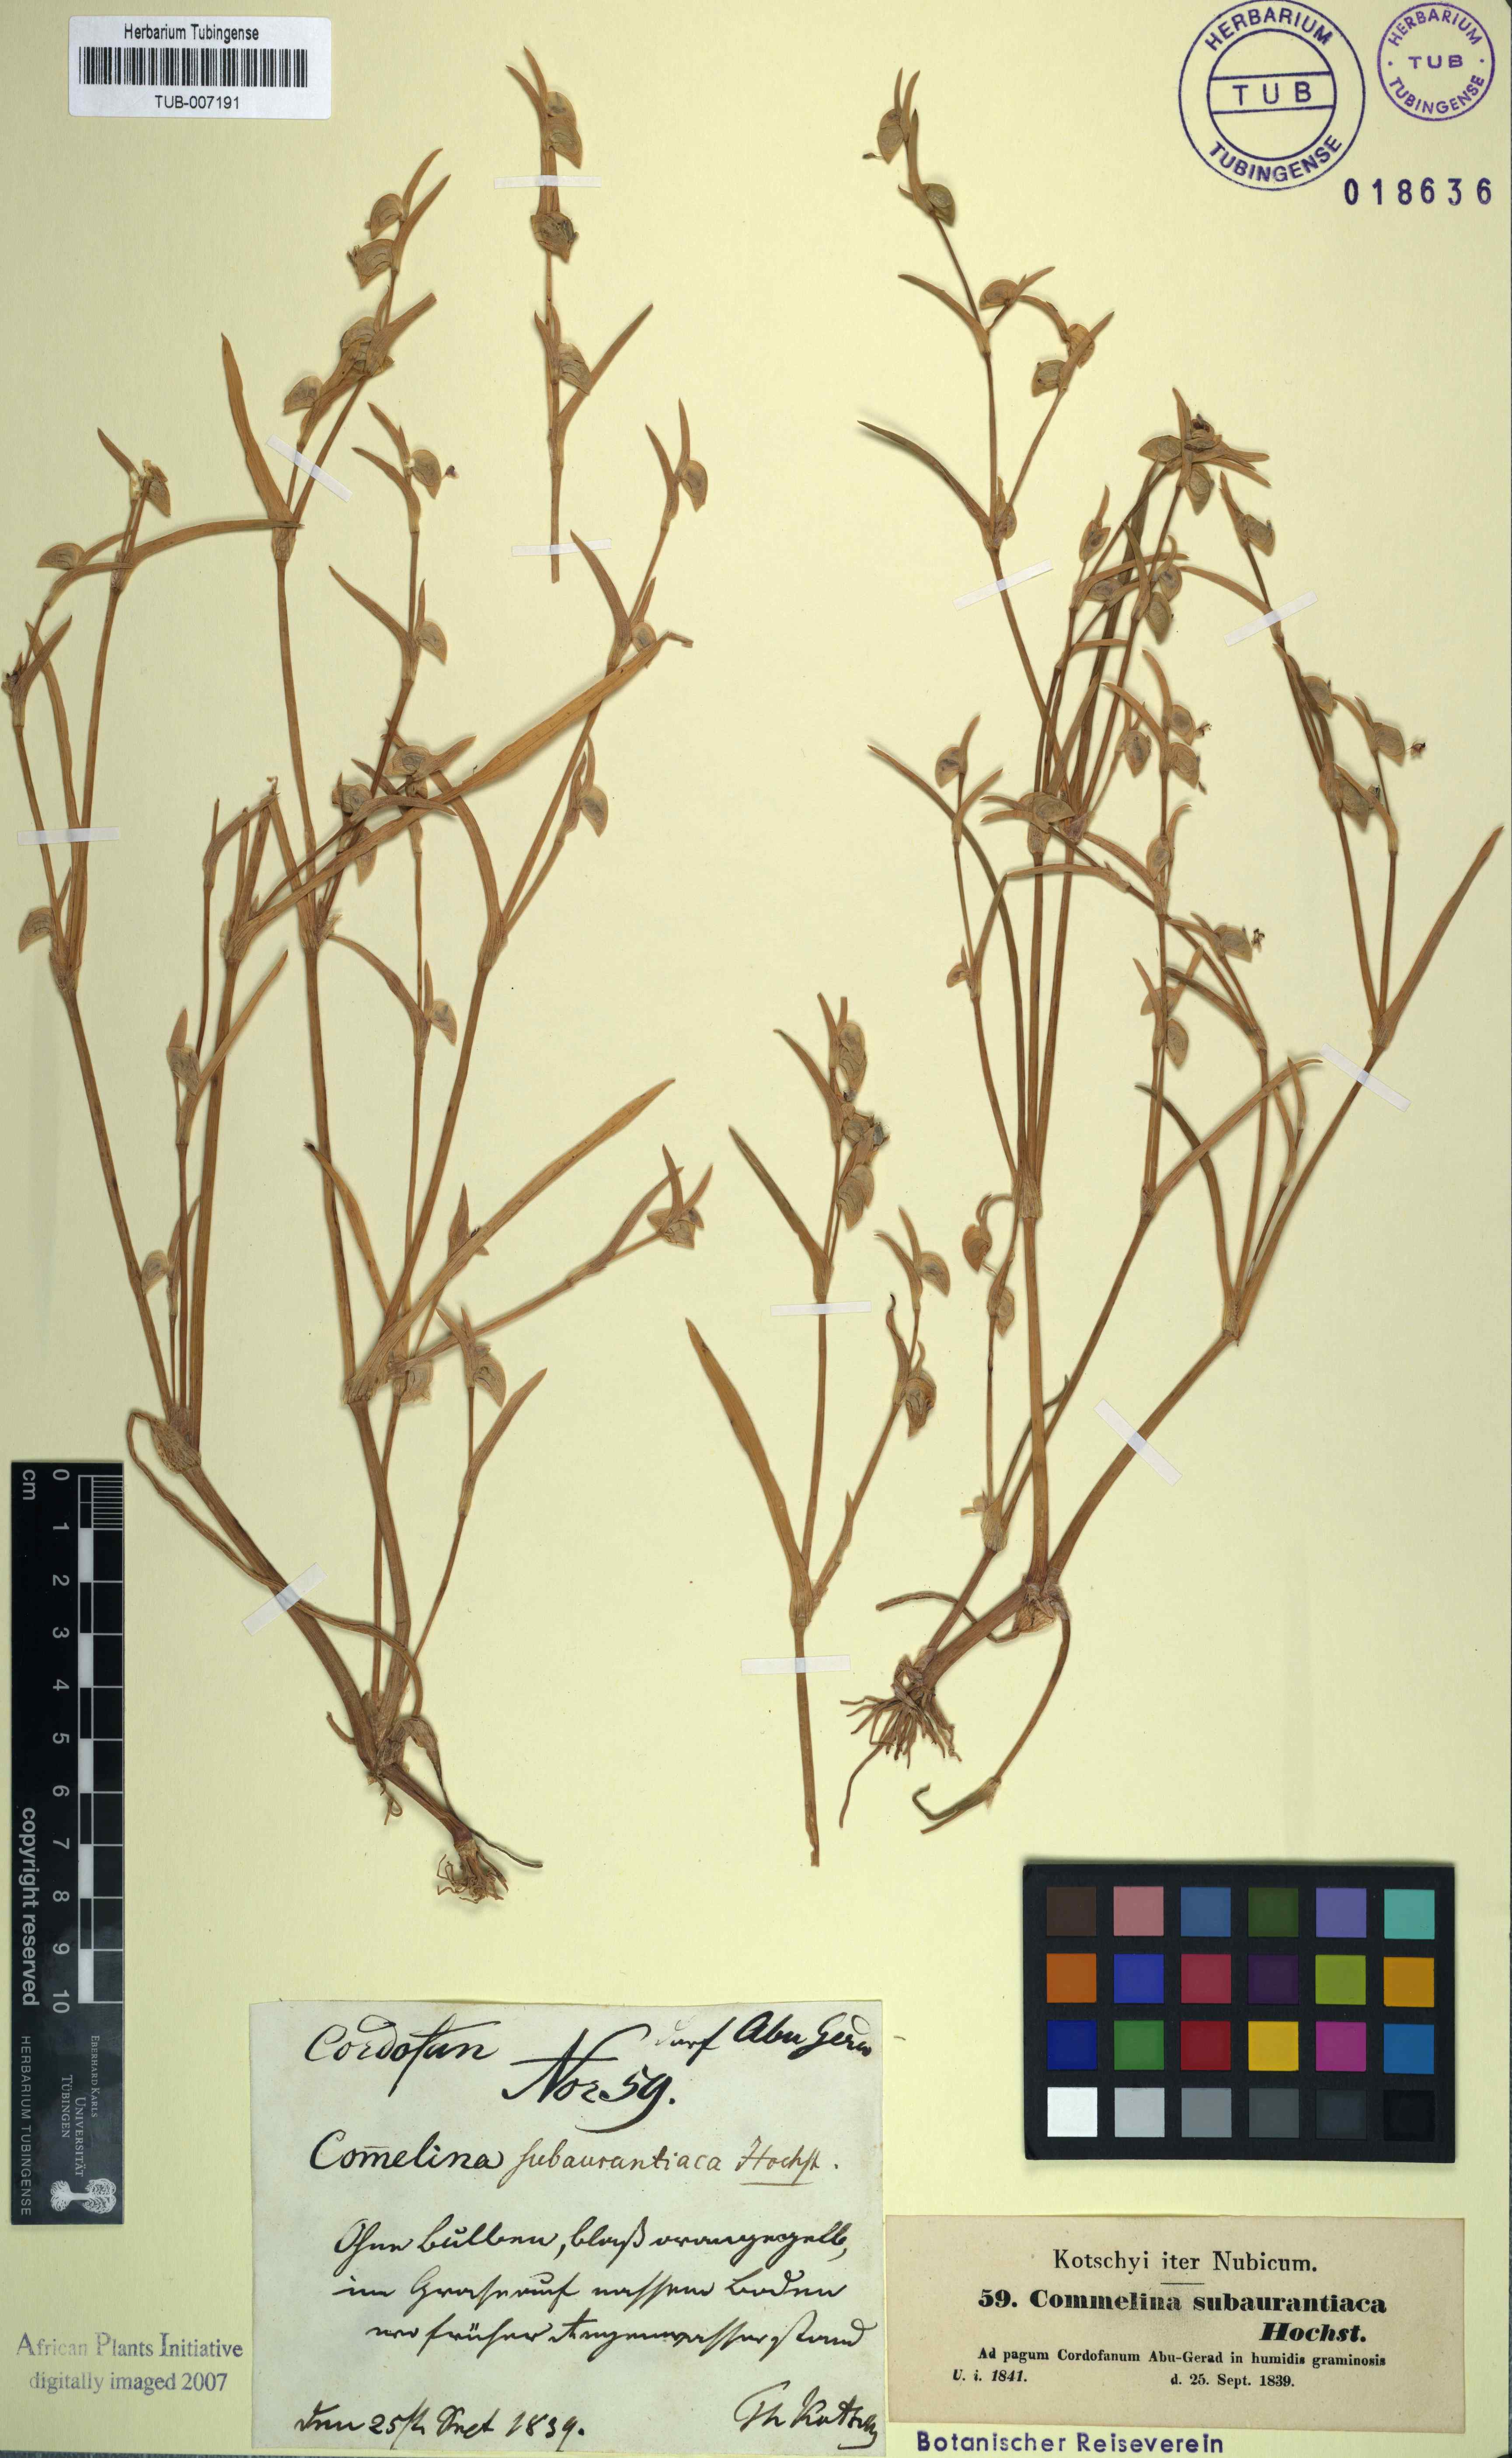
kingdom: Plantae
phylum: Tracheophyta
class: Liliopsida
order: Commelinales
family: Commelinaceae
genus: Commelina
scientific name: Commelina subulata
